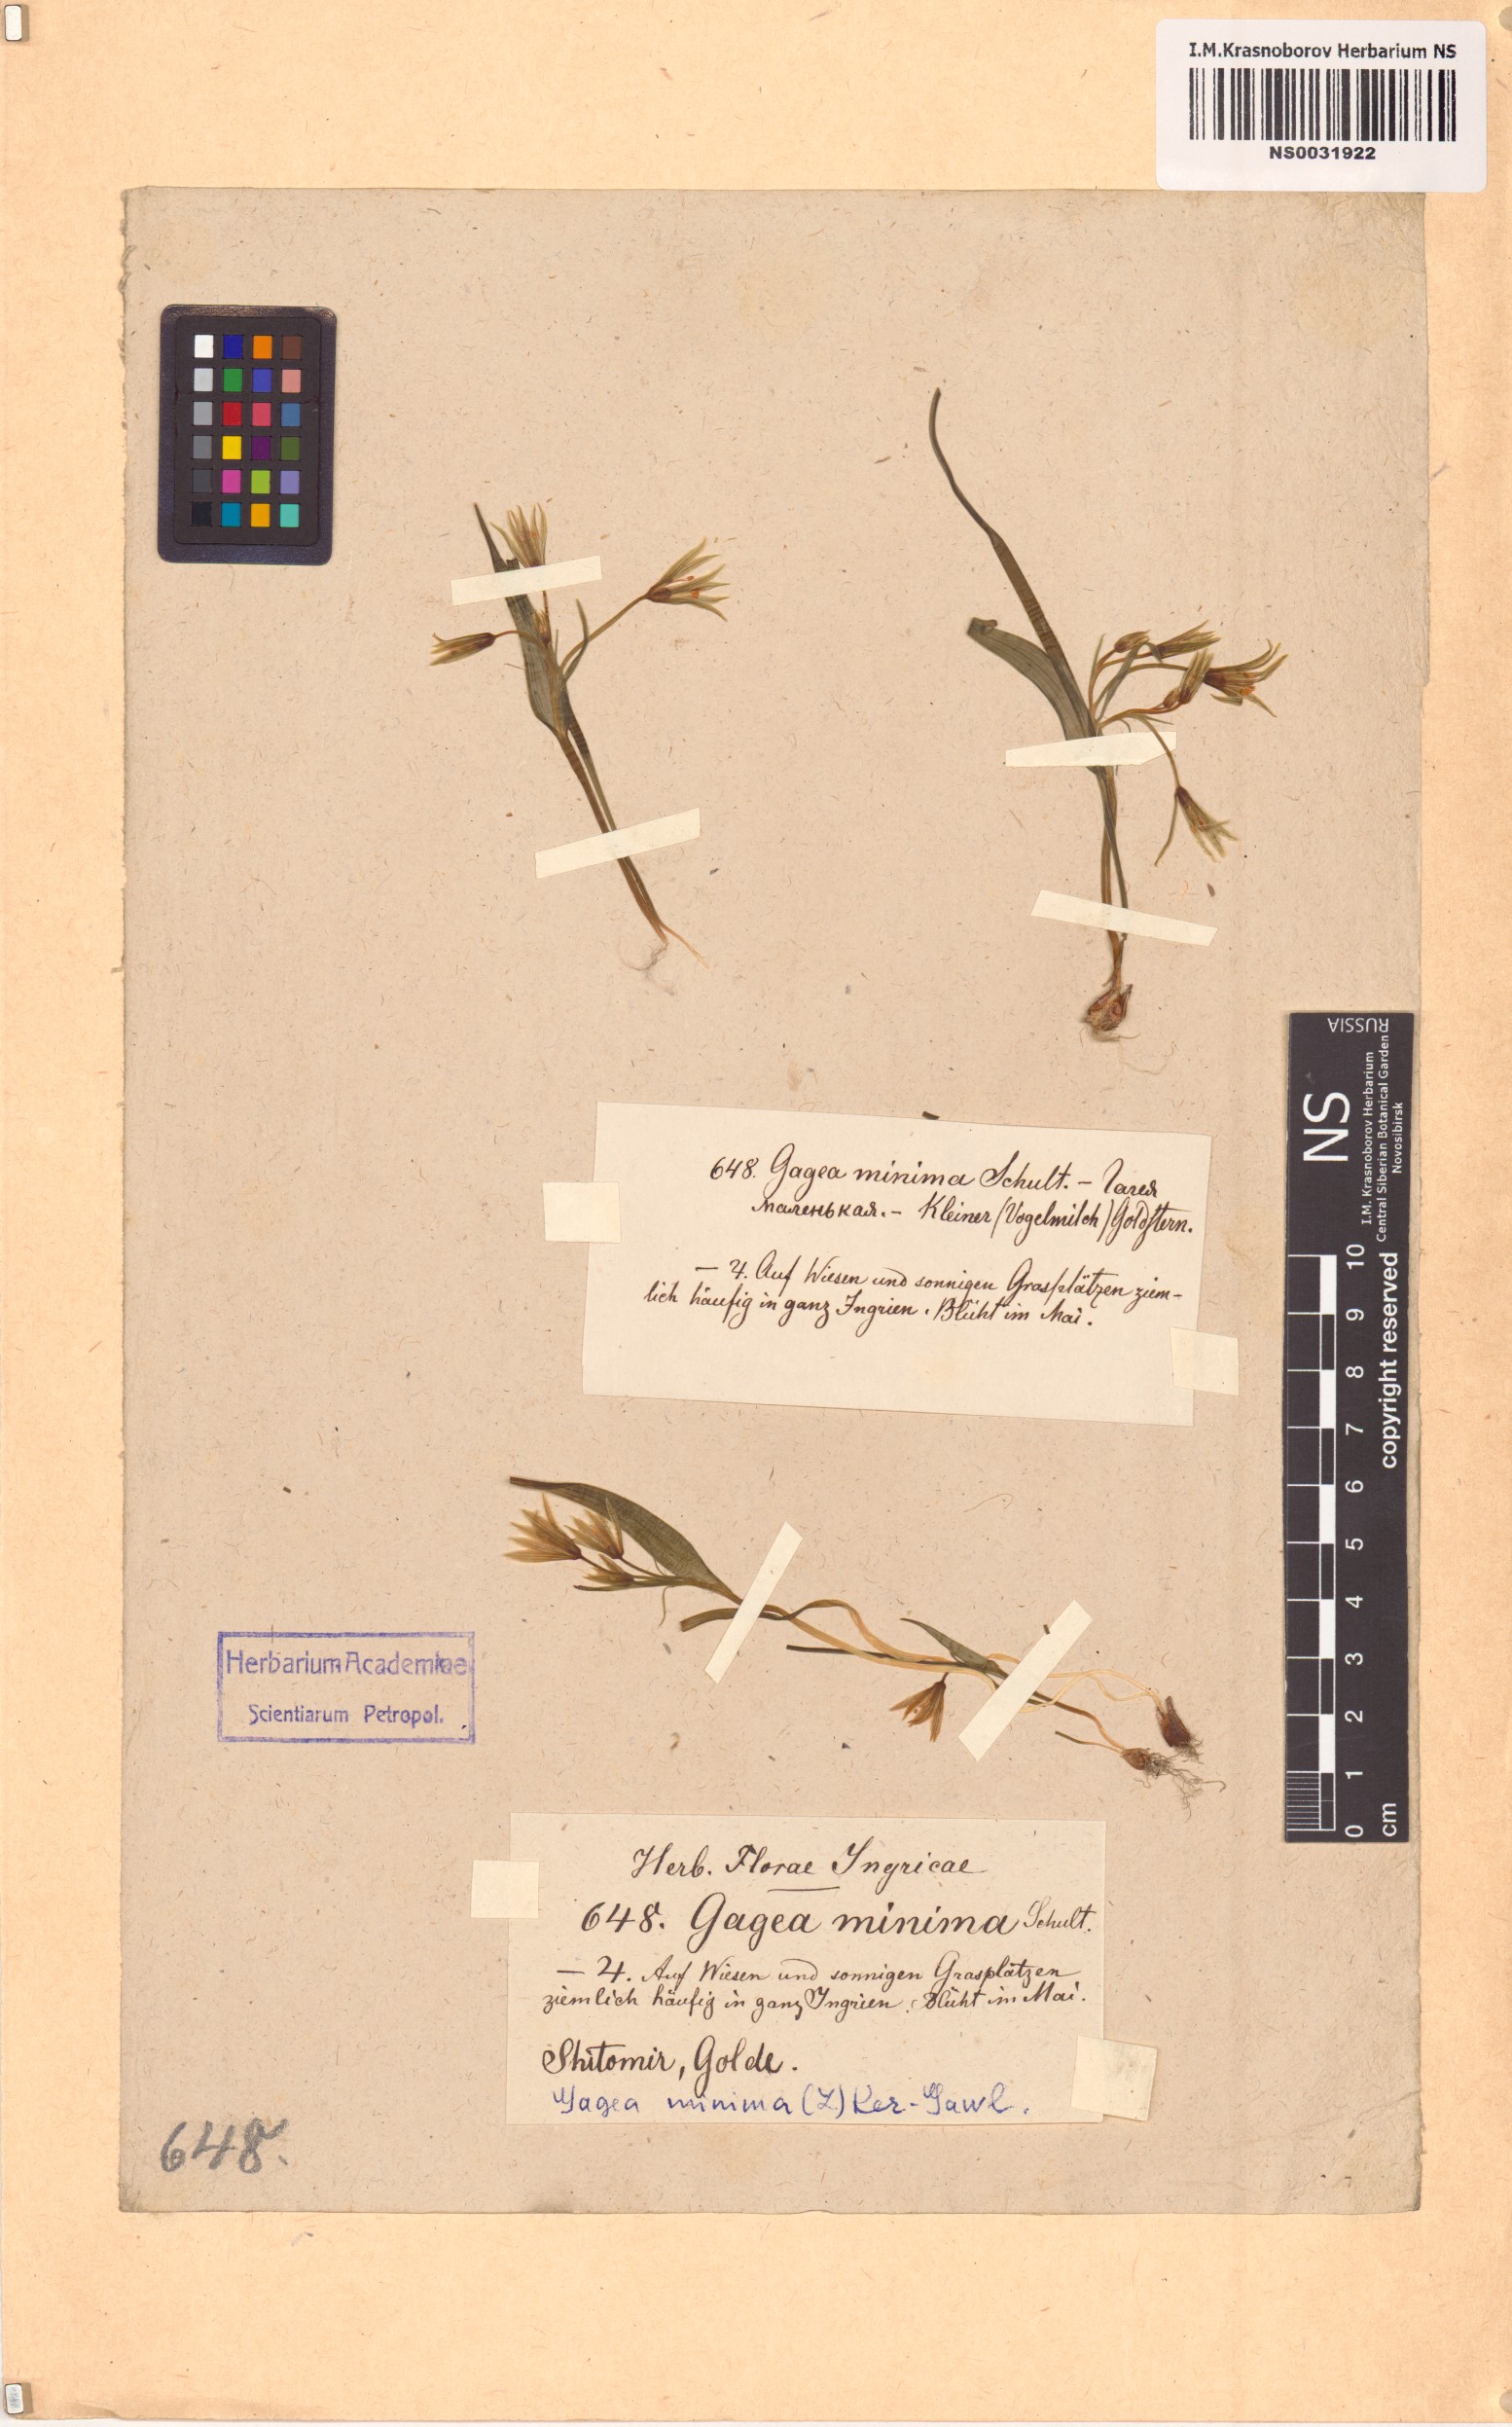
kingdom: Plantae
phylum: Tracheophyta
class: Liliopsida
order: Liliales
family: Liliaceae
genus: Gagea
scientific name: Gagea minima
